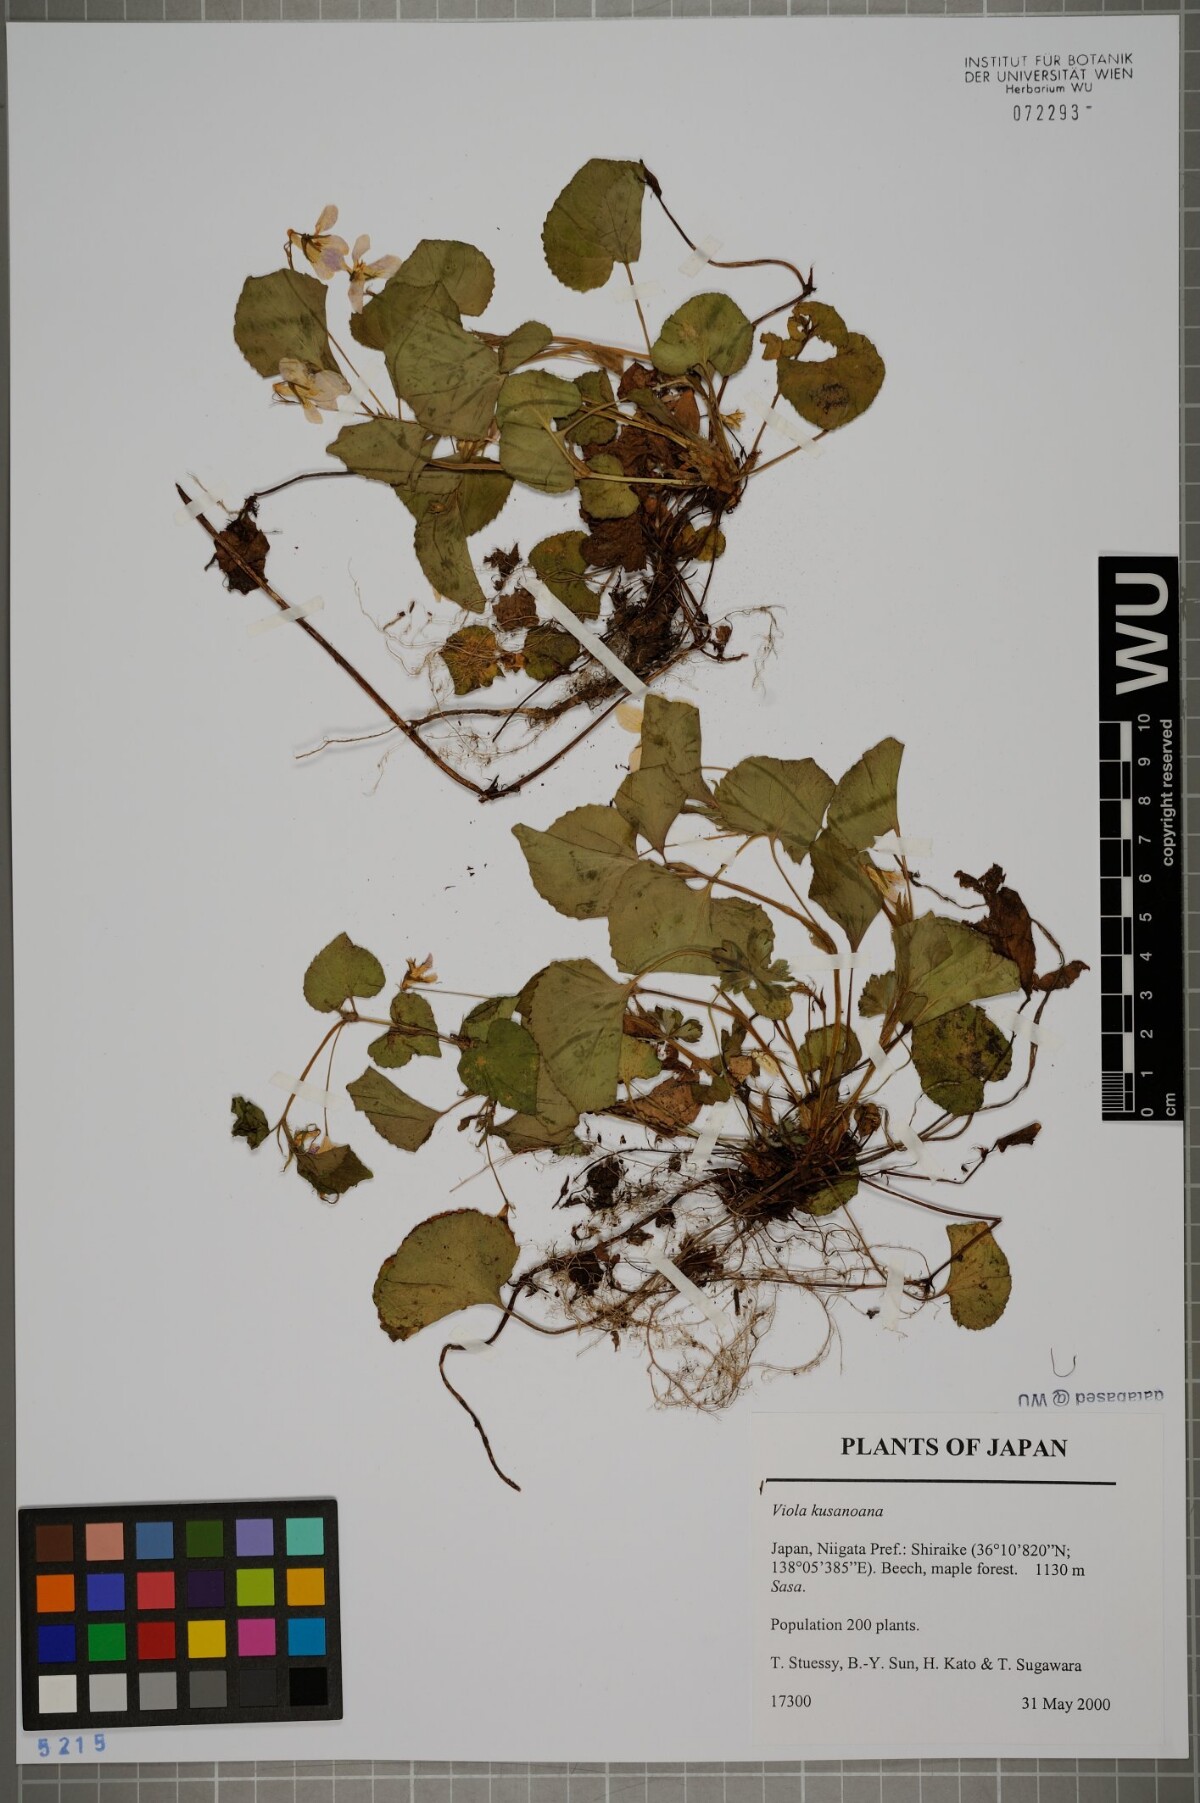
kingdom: Plantae
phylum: Tracheophyta
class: Magnoliopsida
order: Malpighiales
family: Violaceae
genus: Viola
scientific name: Viola kusanoana
